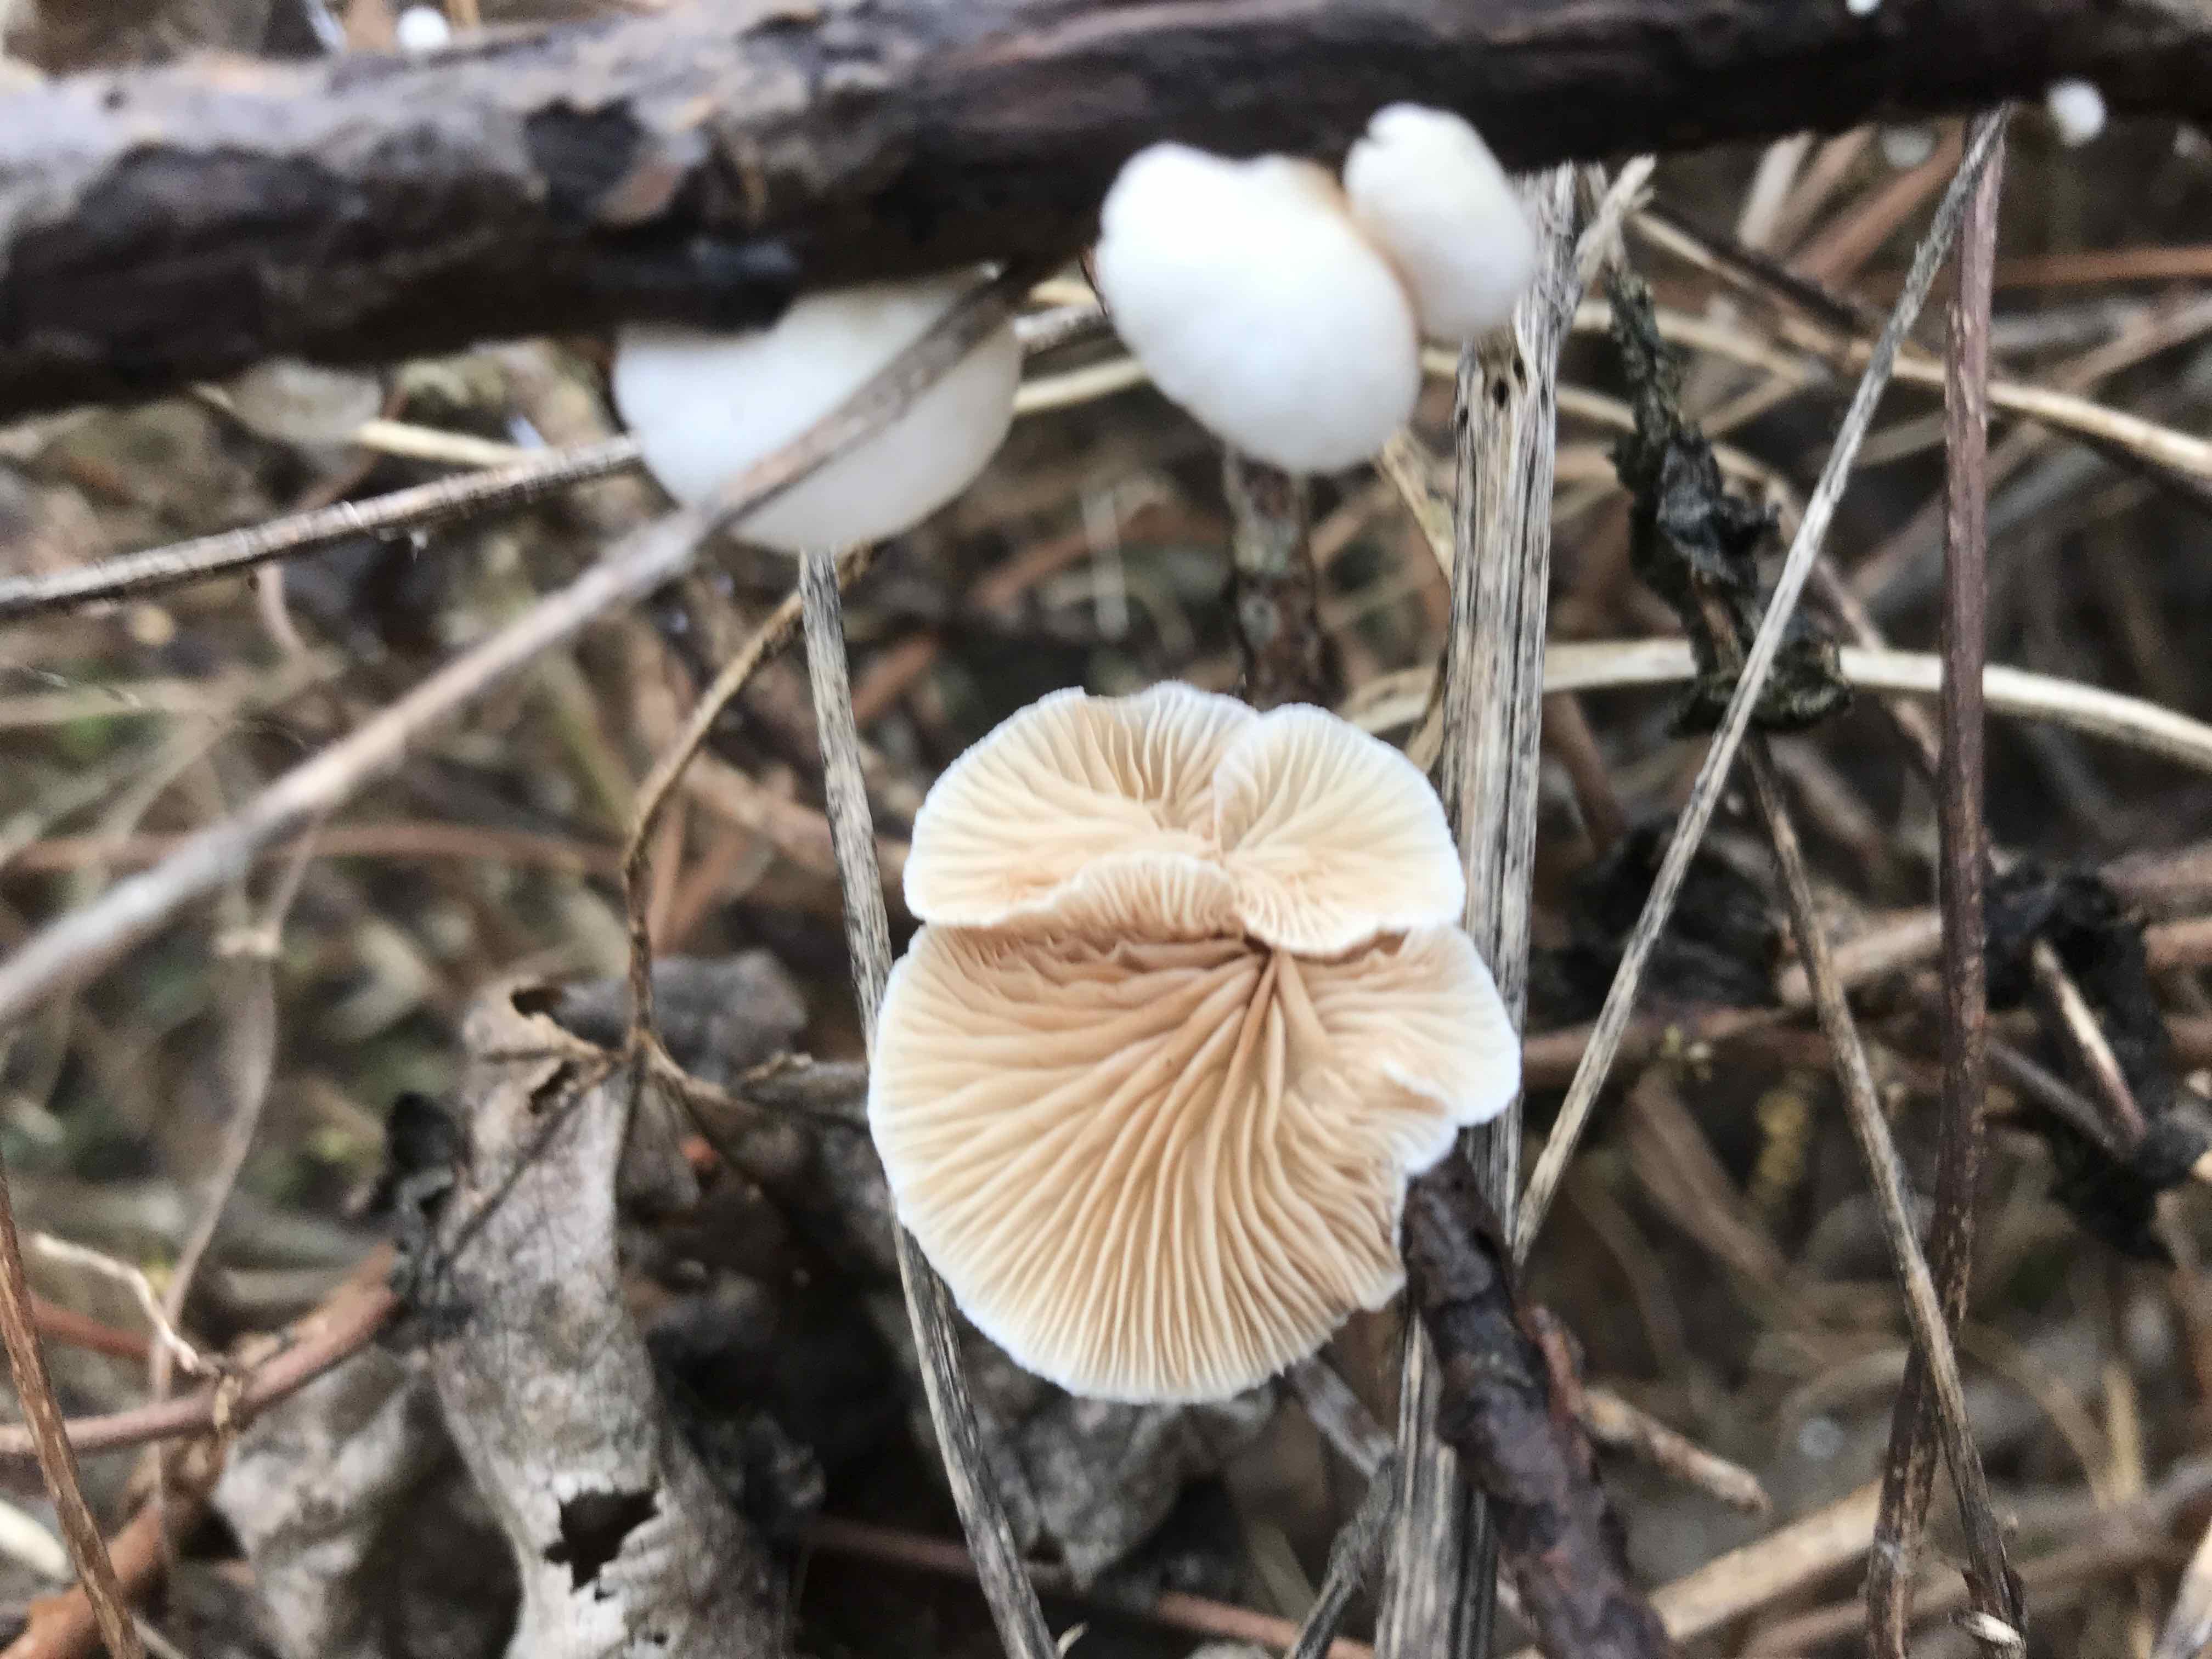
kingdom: Fungi
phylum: Basidiomycota
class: Agaricomycetes
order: Agaricales
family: Crepidotaceae
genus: Crepidotus
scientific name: Crepidotus
